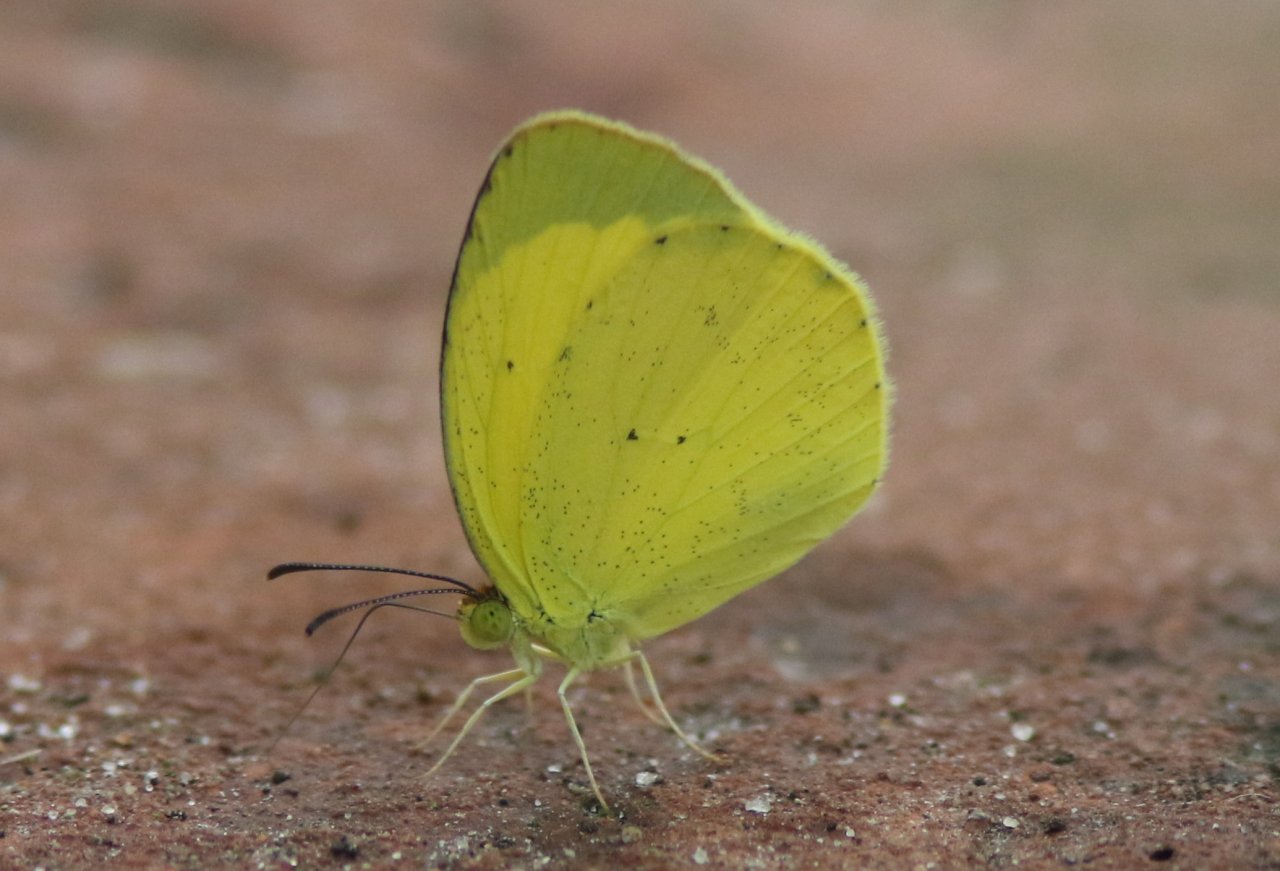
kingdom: Animalia
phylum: Arthropoda
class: Insecta
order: Lepidoptera
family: Pieridae
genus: Pyrisitia
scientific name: Pyrisitia nise
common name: Mimosa Yellow
